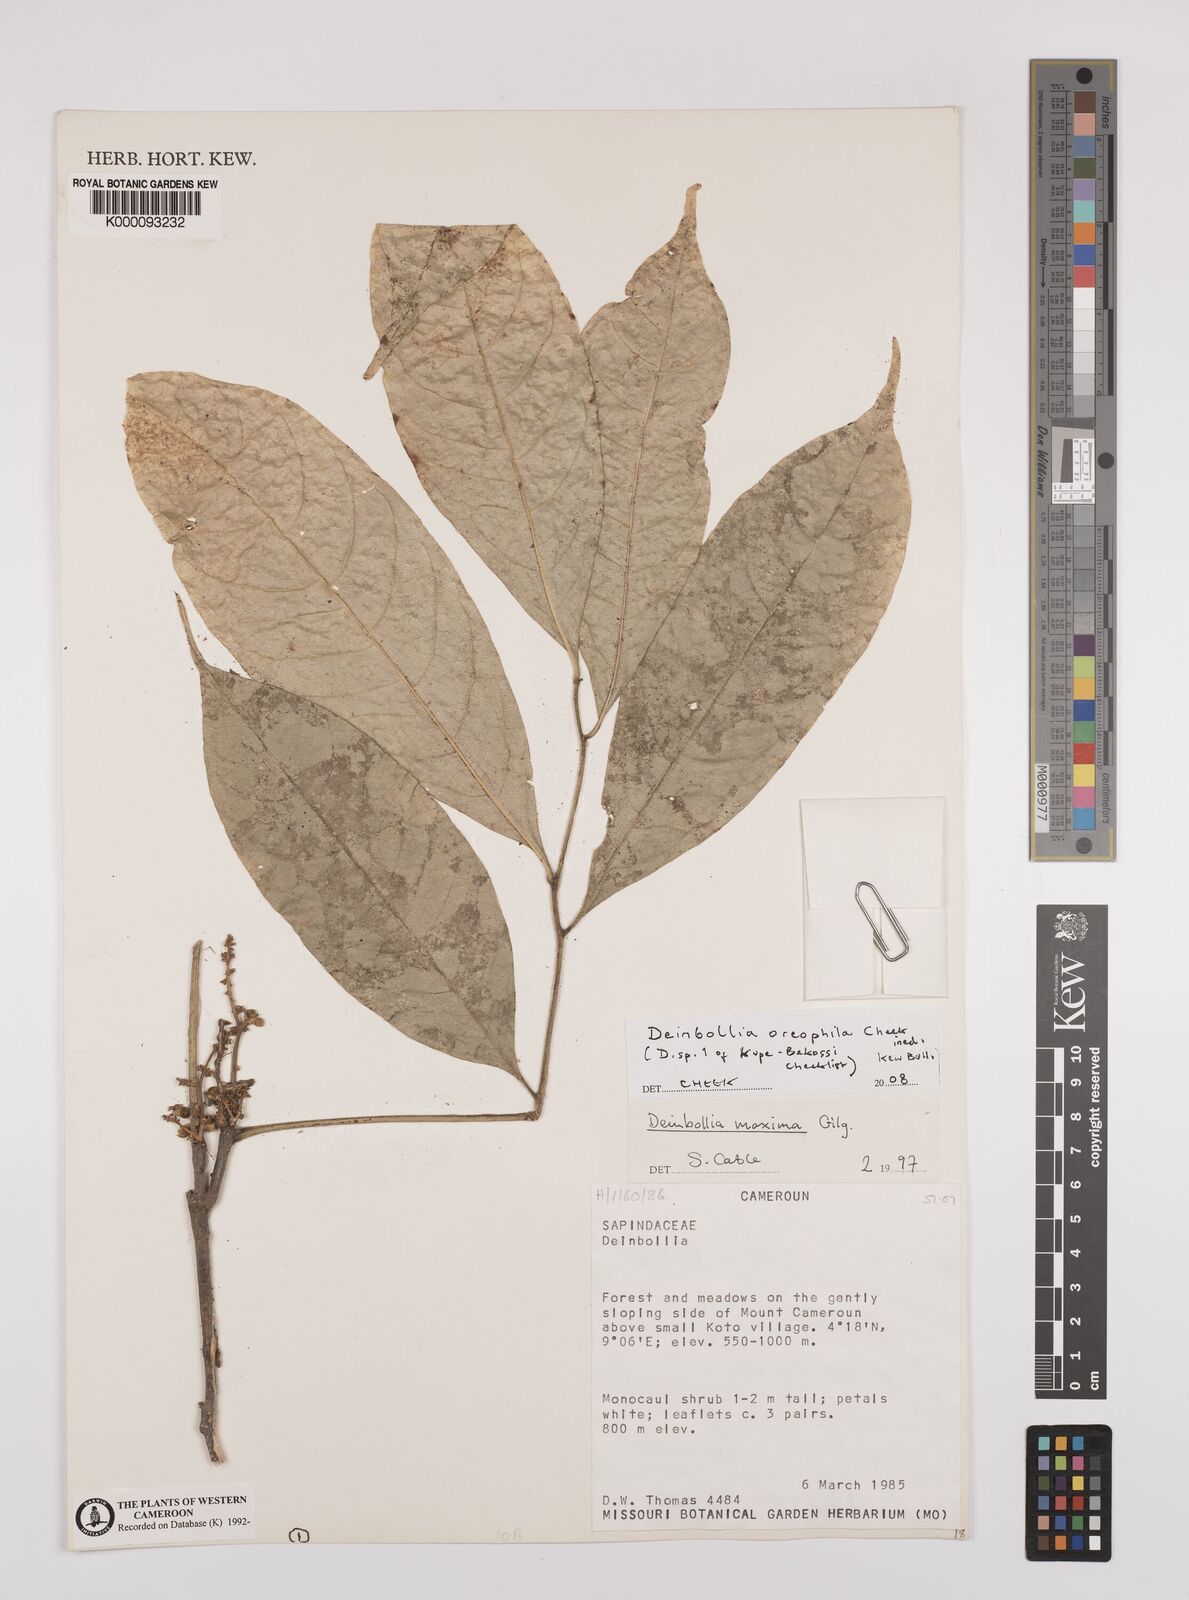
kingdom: Plantae
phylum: Tracheophyta
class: Magnoliopsida
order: Sapindales
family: Sapindaceae
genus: Deinbollia
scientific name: Deinbollia oreophila
